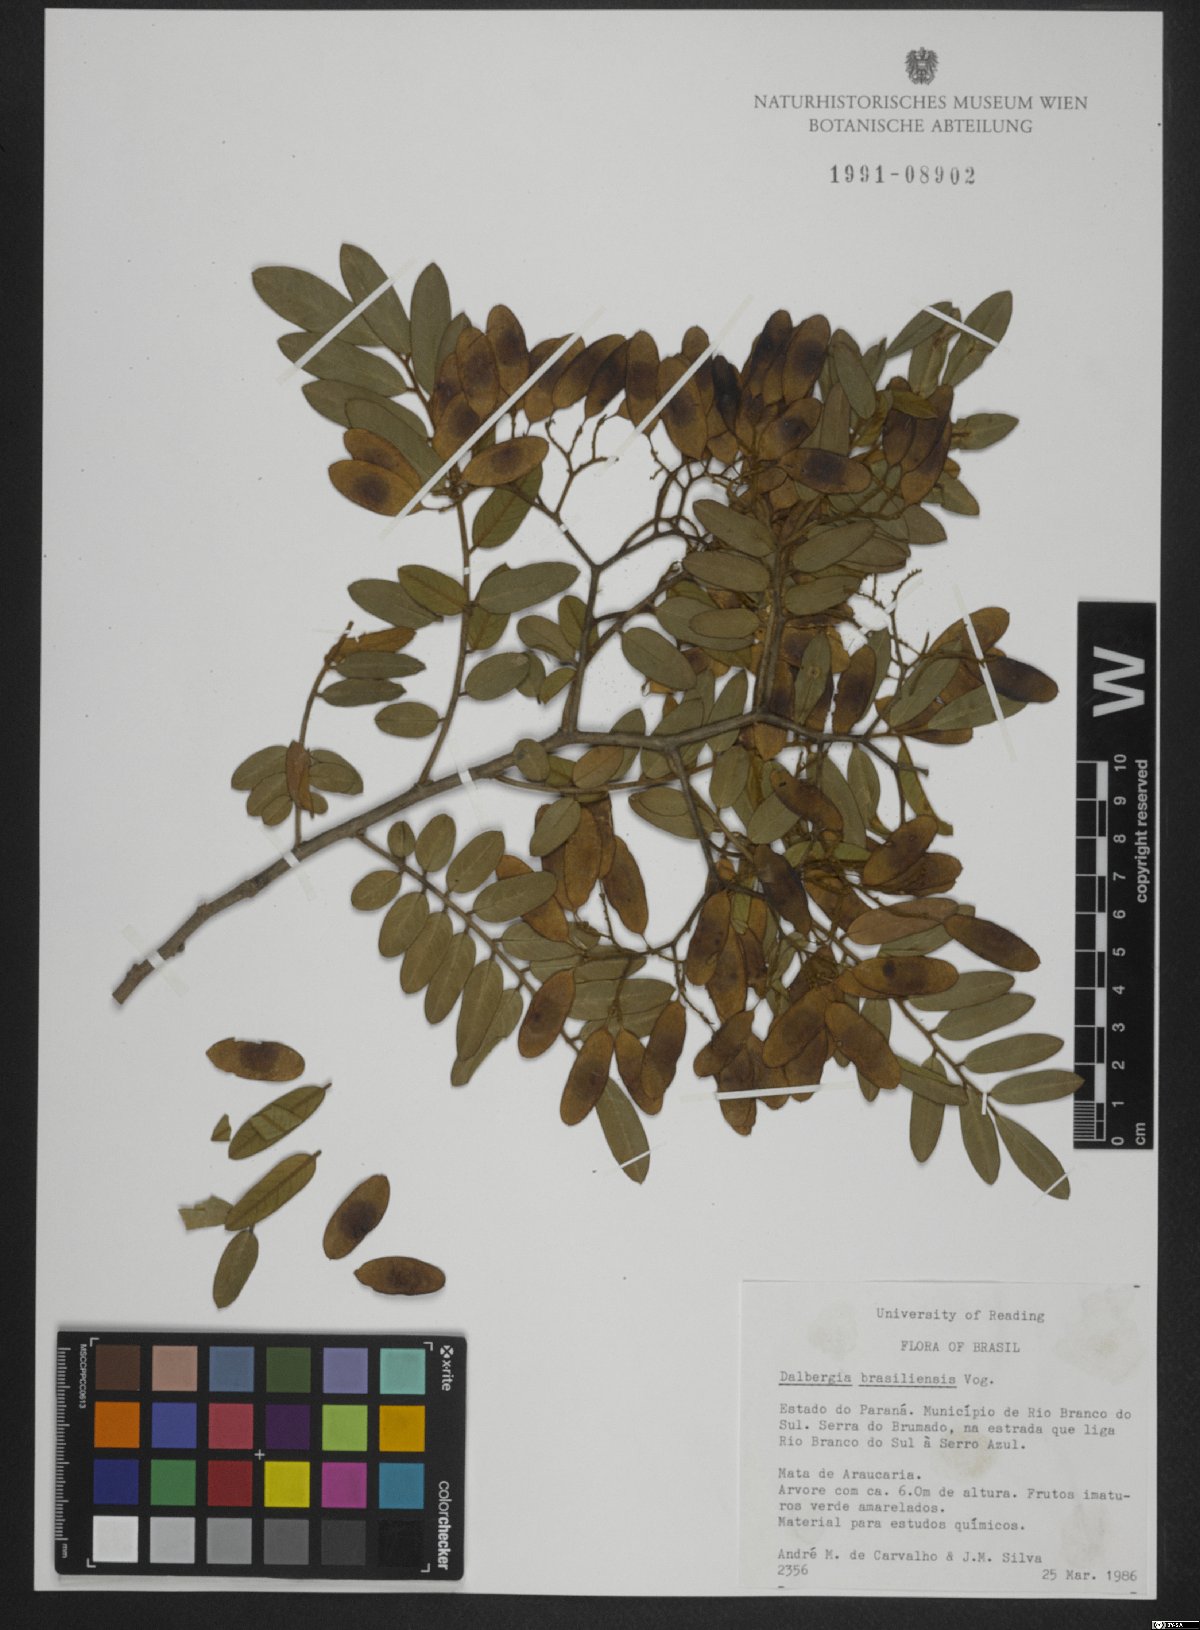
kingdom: Plantae
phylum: Tracheophyta
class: Magnoliopsida
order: Fabales
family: Fabaceae
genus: Dalbergia
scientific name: Dalbergia brasiliensis
